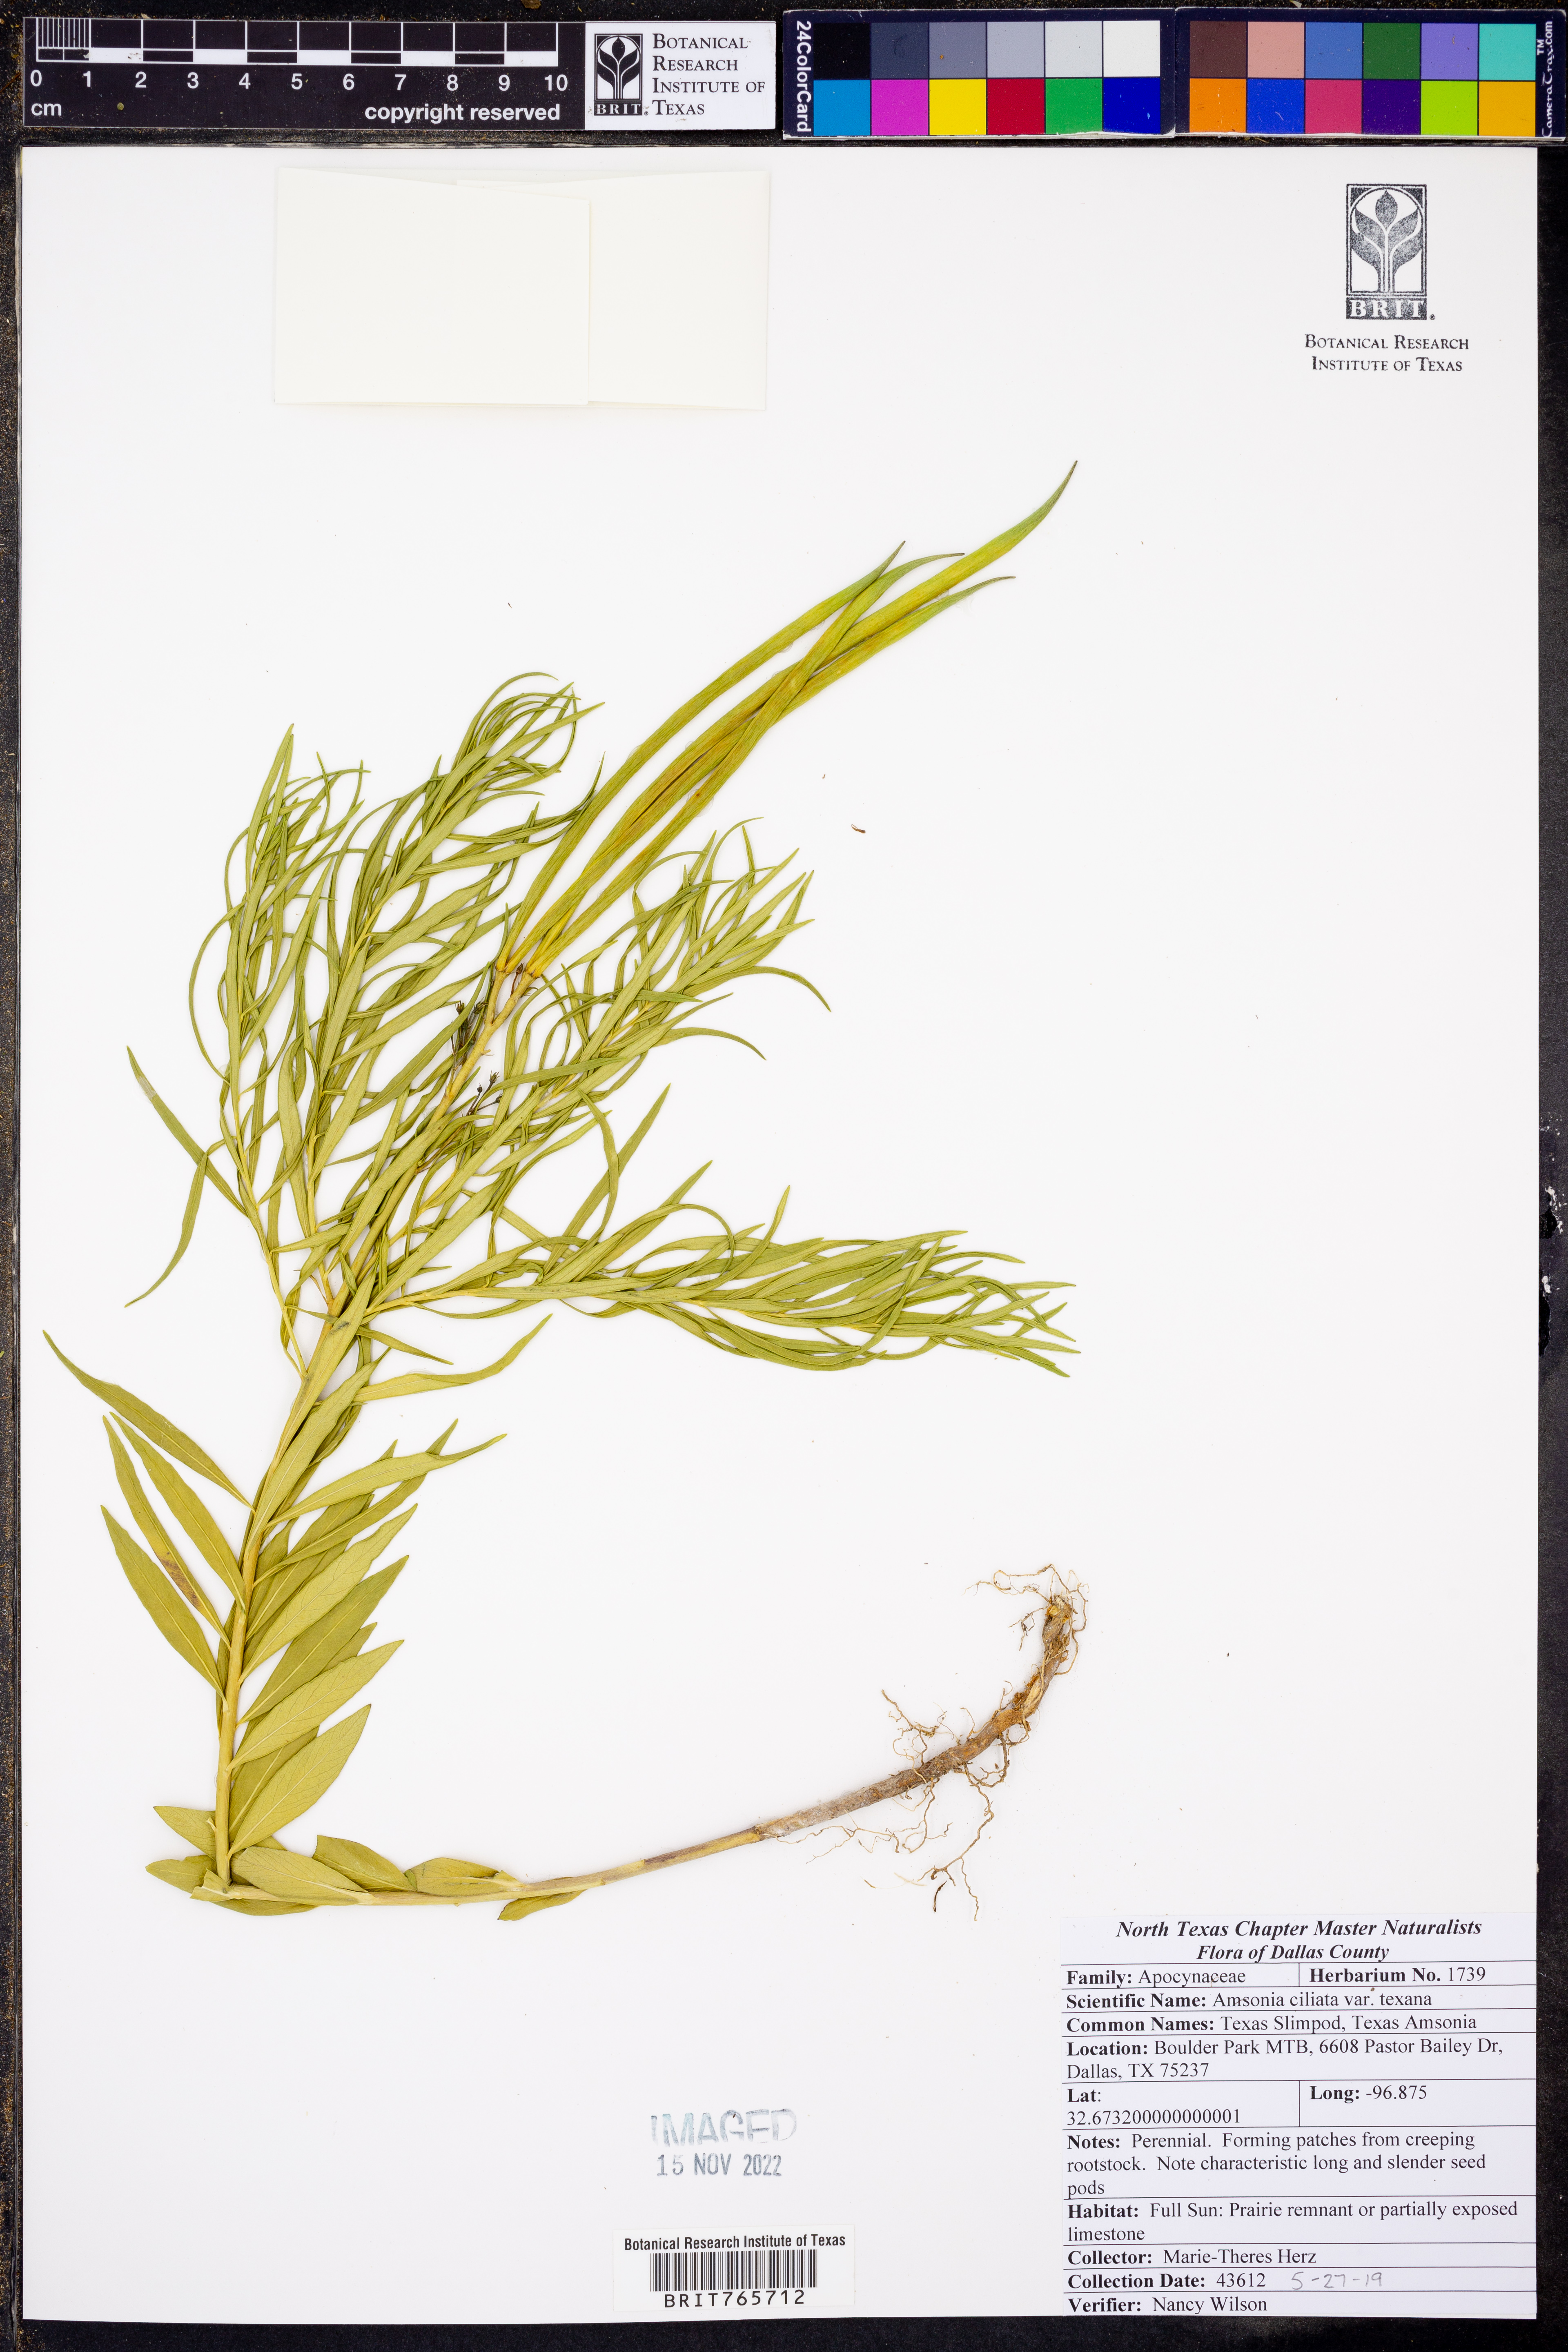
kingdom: Plantae
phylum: Tracheophyta
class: Magnoliopsida
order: Gentianales
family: Apocynaceae
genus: Amsonia
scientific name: Amsonia ciliata
